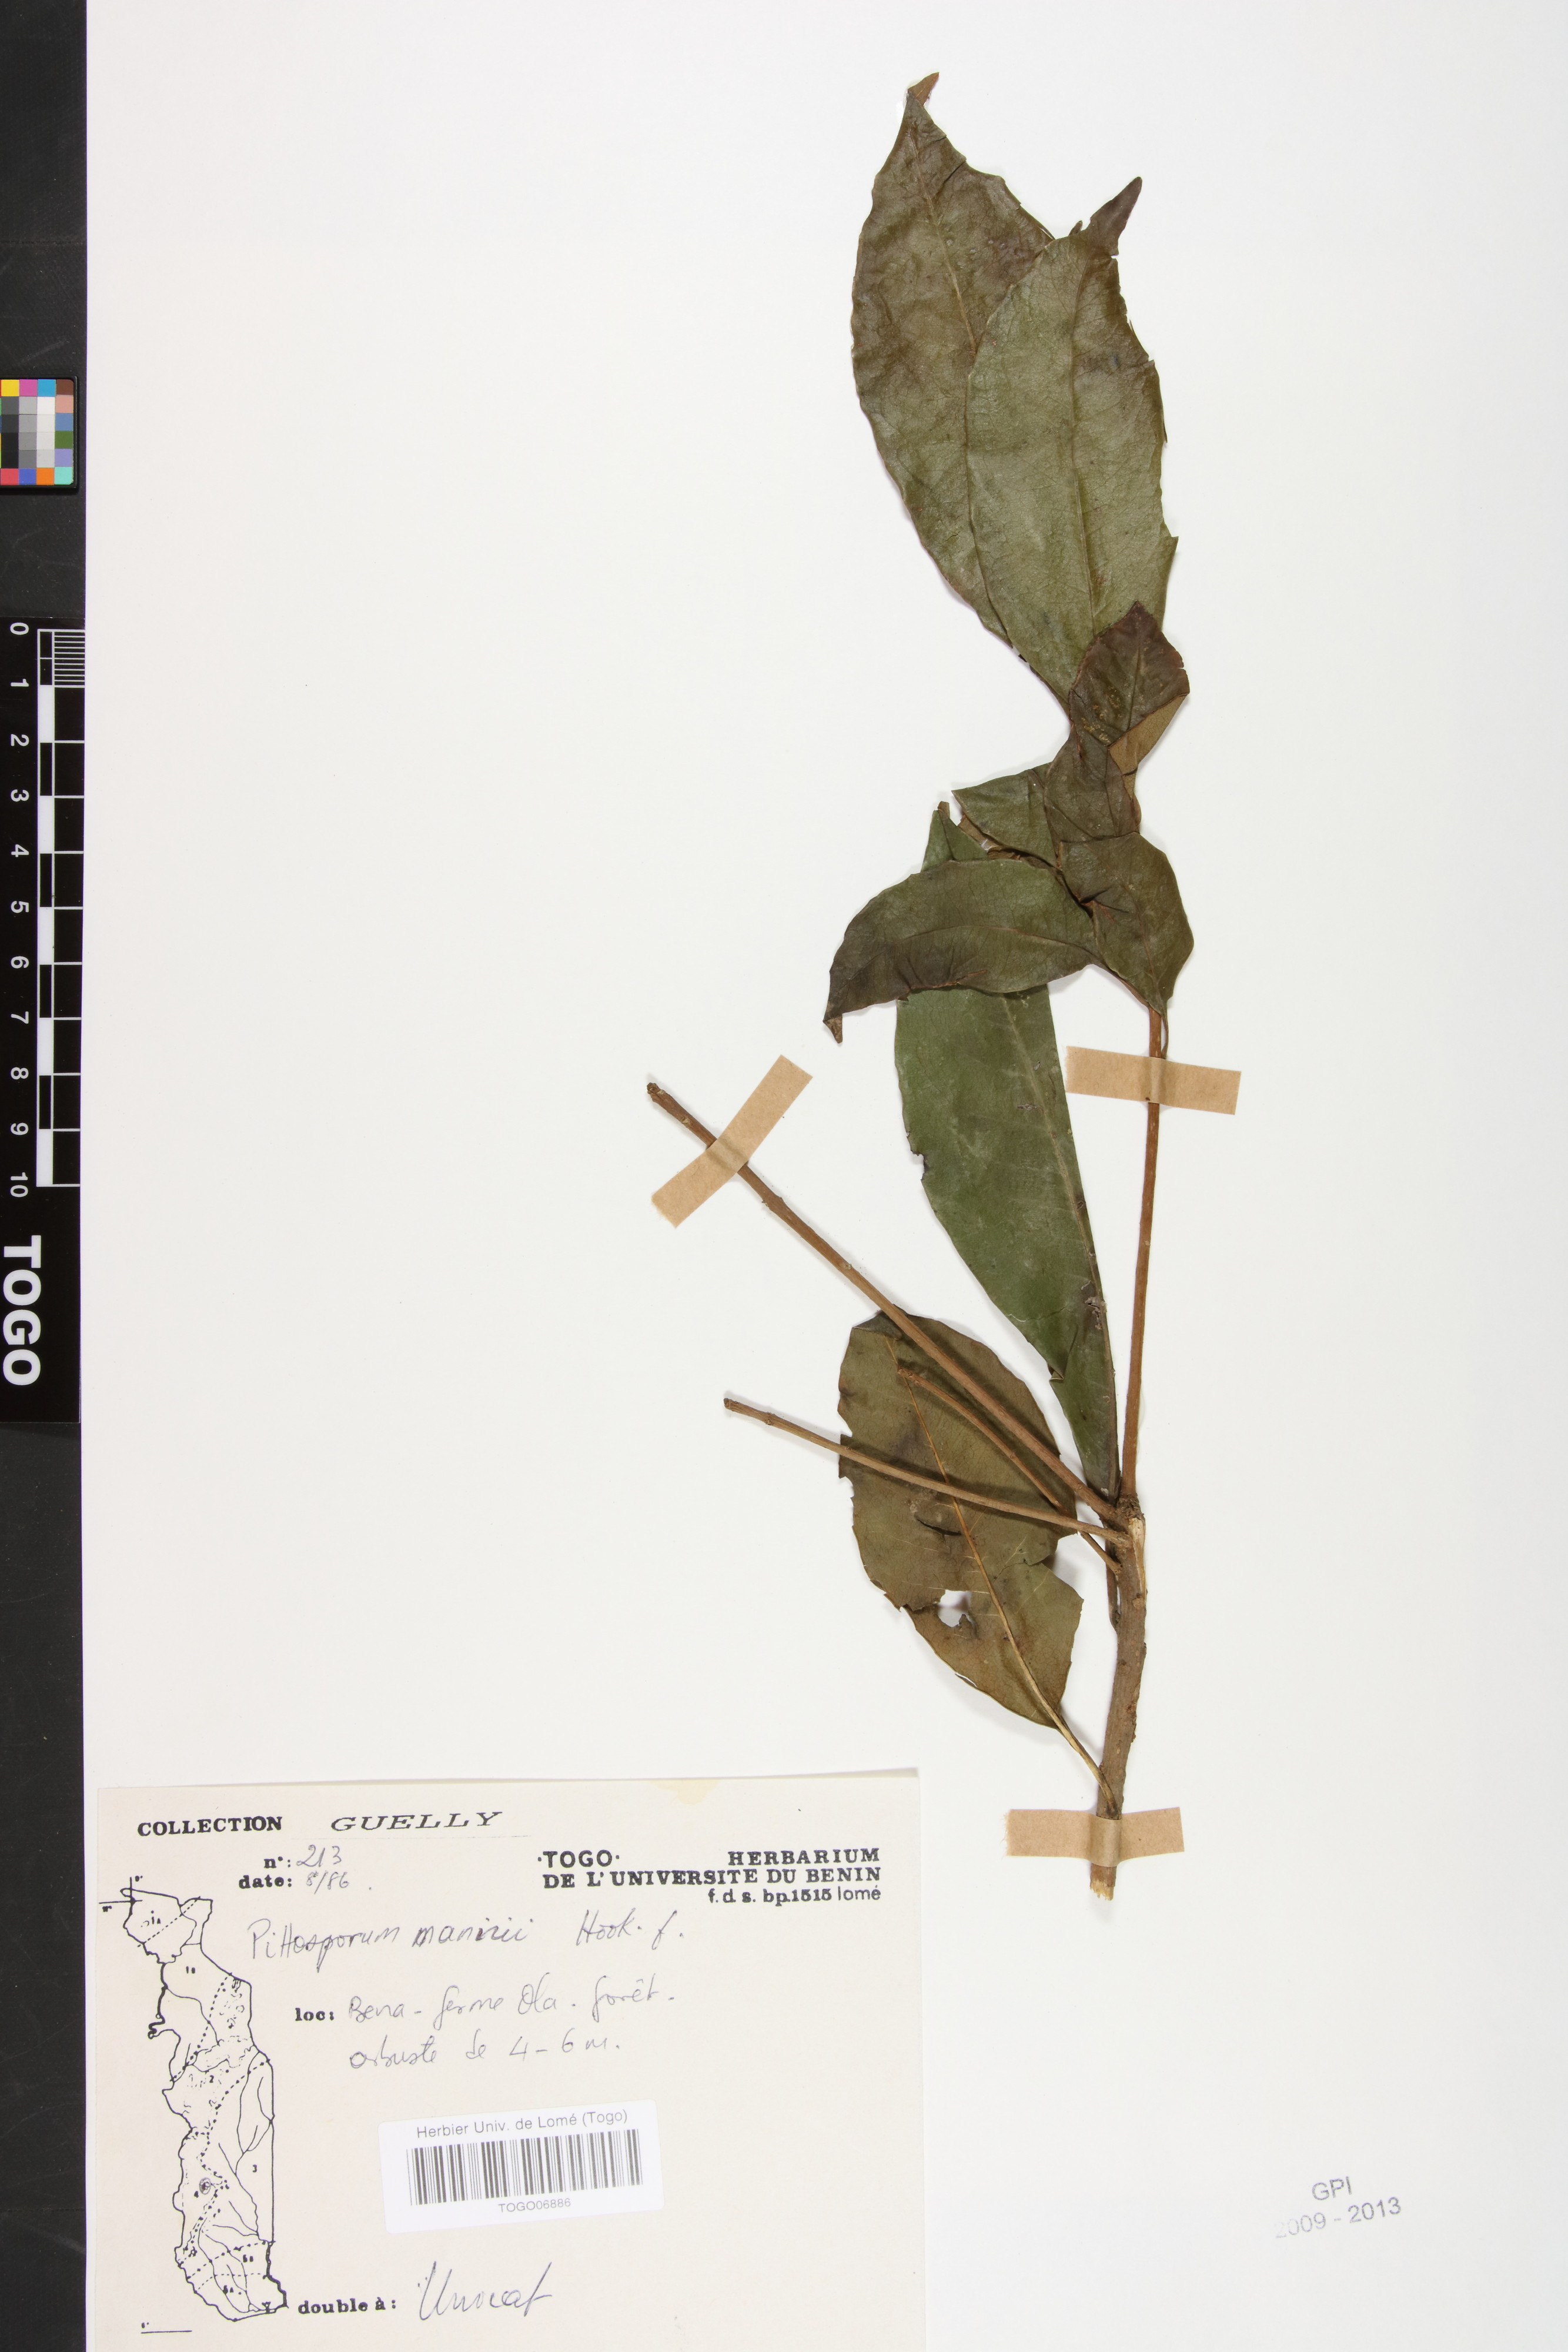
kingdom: Plantae
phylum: Tracheophyta
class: Magnoliopsida
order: Apiales
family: Pittosporaceae
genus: Pittosporum
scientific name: Pittosporum viridiflorum
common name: Cape cheesewood
